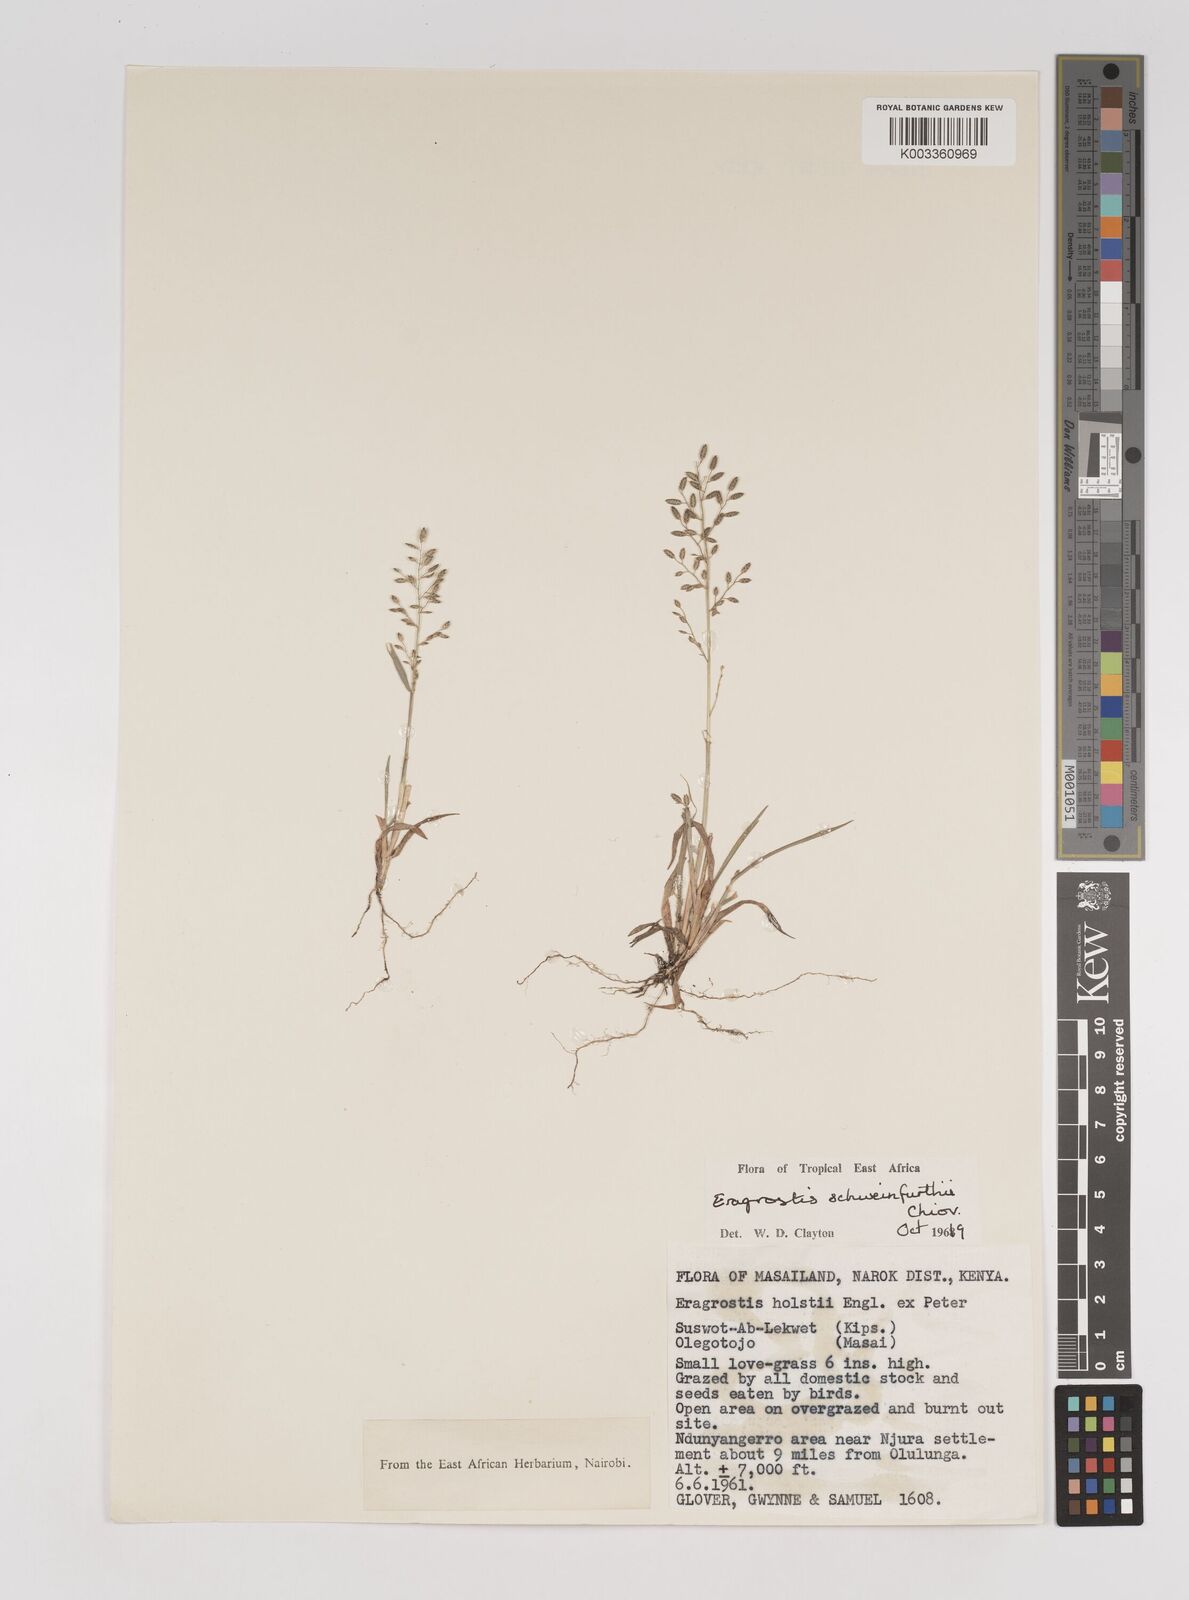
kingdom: Plantae
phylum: Tracheophyta
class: Liliopsida
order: Poales
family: Poaceae
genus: Eragrostis
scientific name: Eragrostis schweinfurthii
